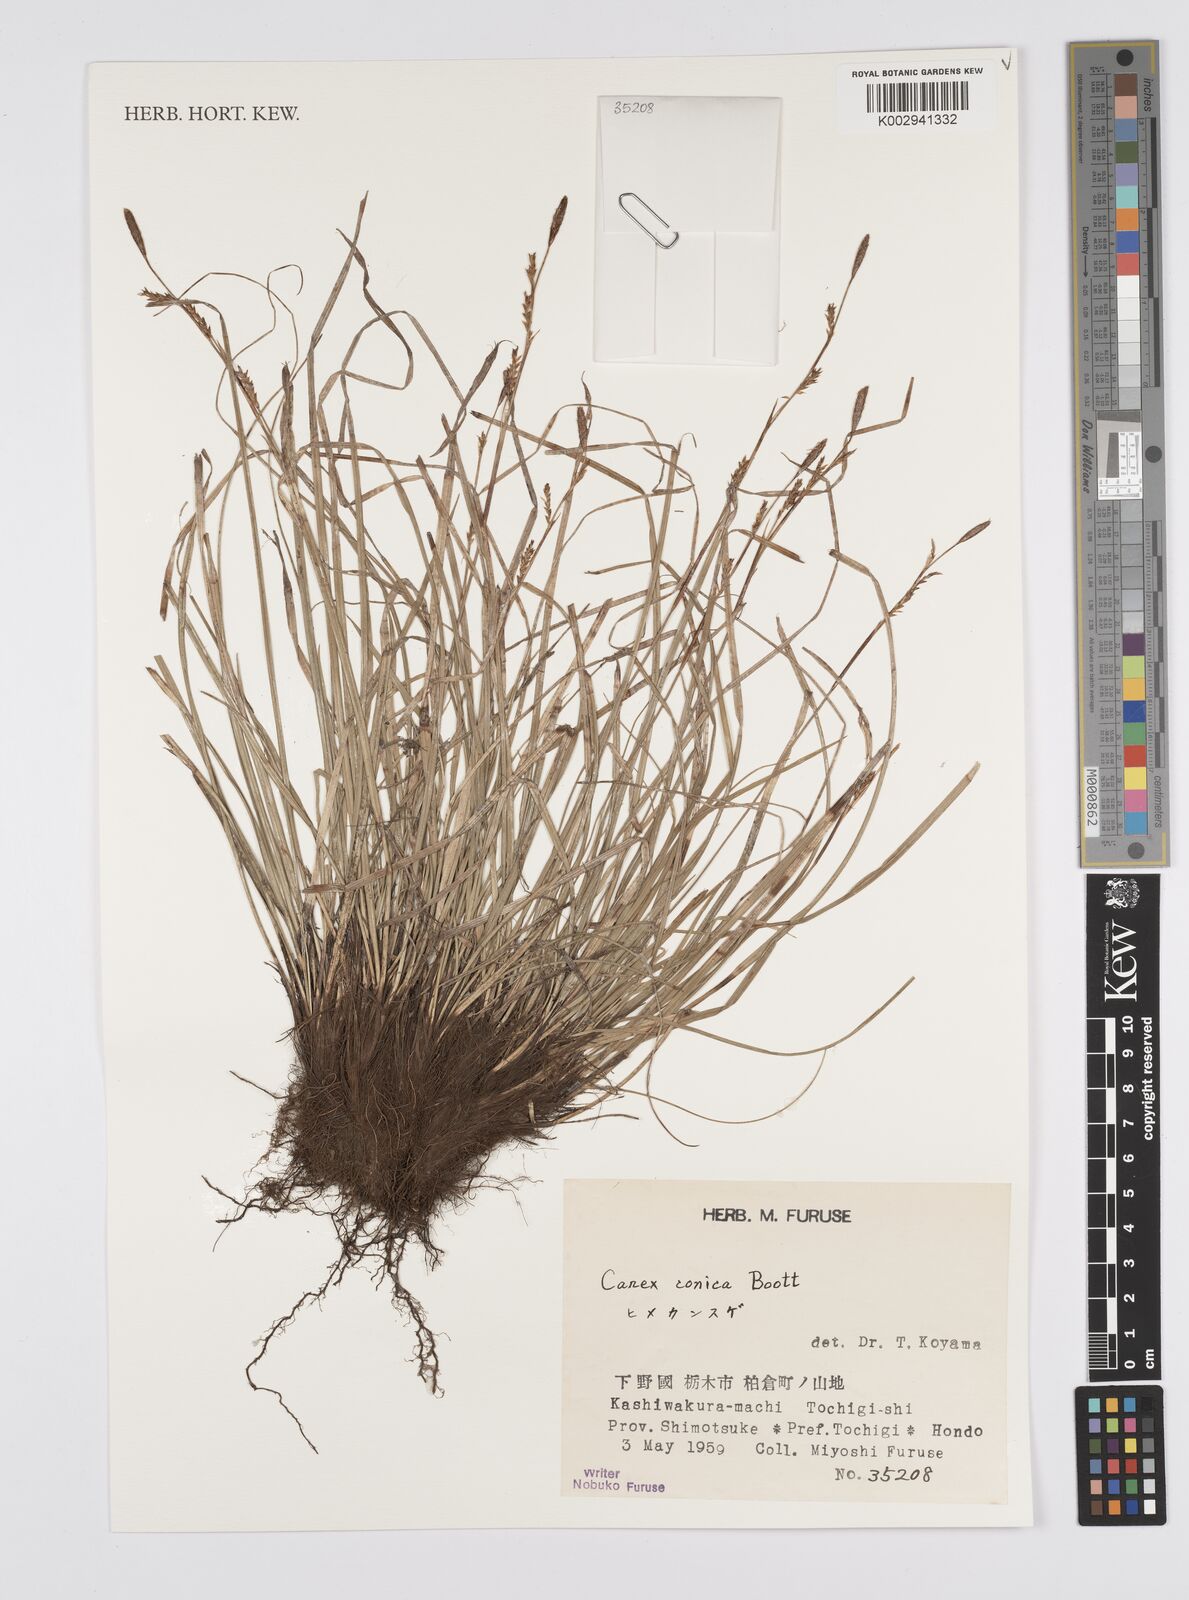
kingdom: Plantae
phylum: Tracheophyta
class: Liliopsida
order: Poales
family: Cyperaceae
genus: Carex
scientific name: Carex conica
